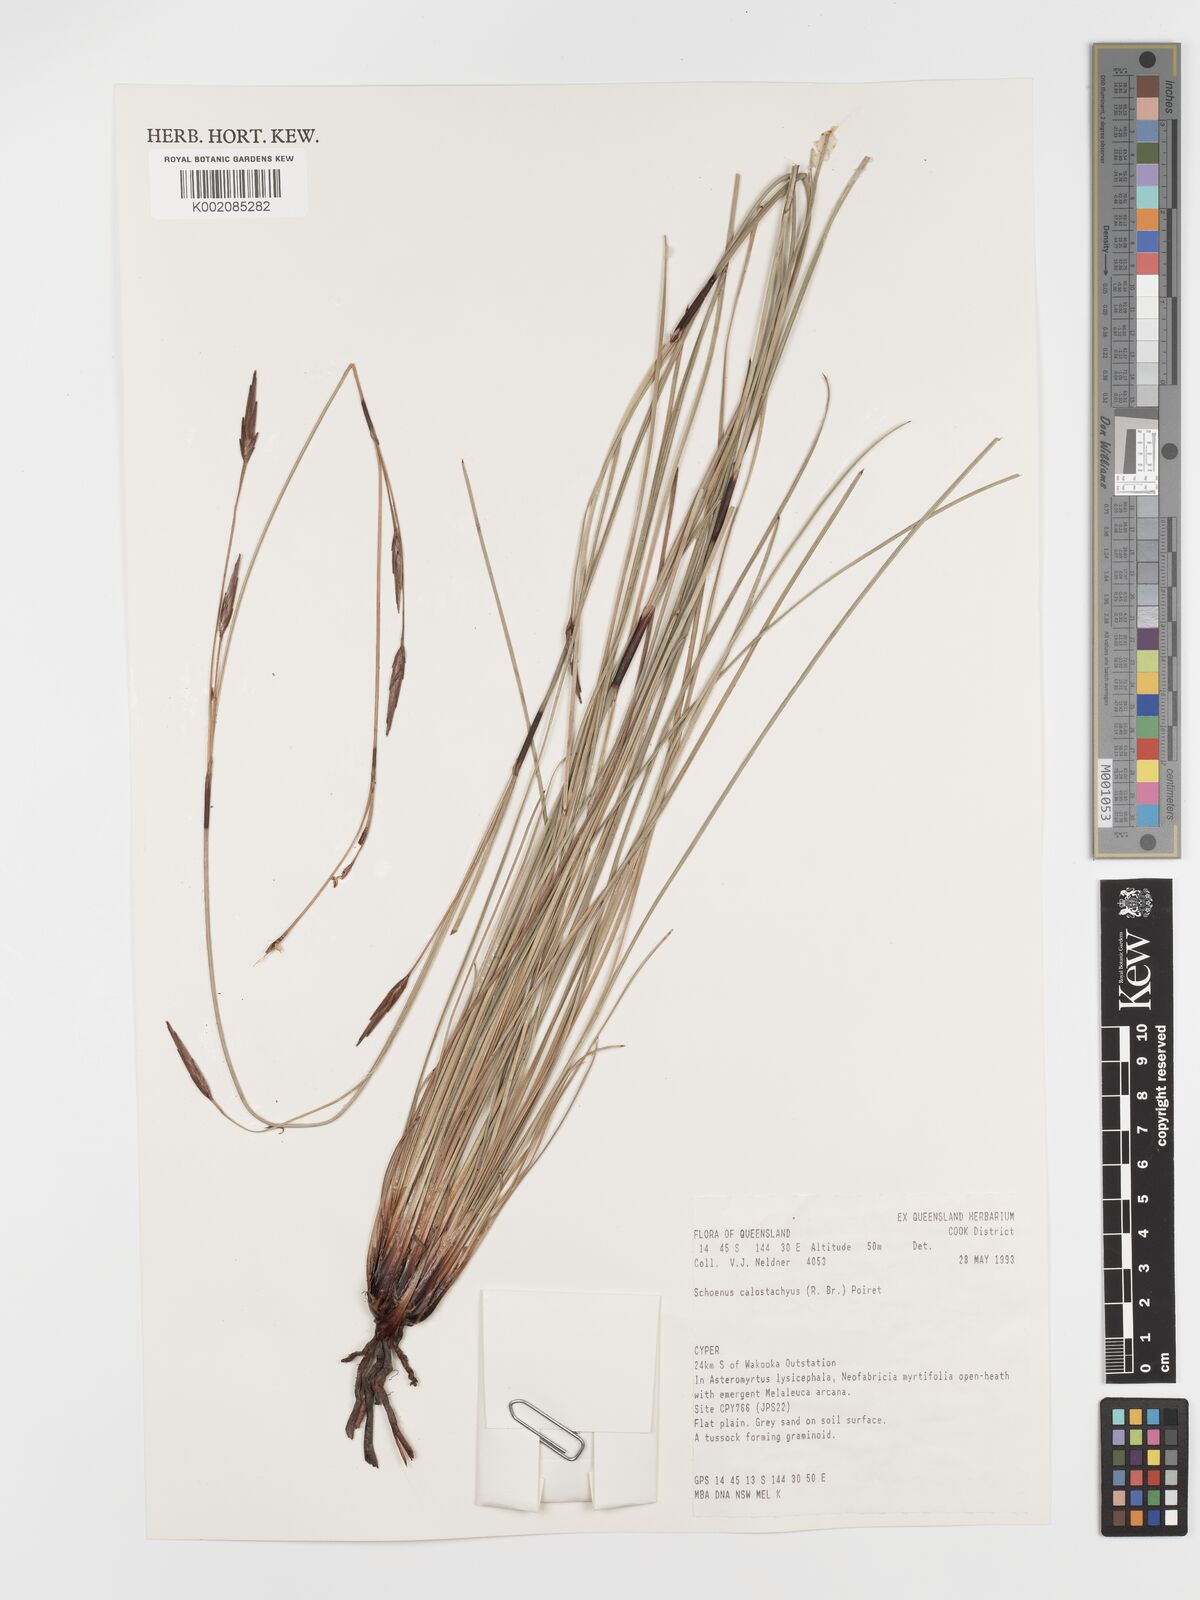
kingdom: Plantae
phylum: Tracheophyta
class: Liliopsida
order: Poales
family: Cyperaceae
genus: Schoenus
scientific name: Schoenus calostachyus
